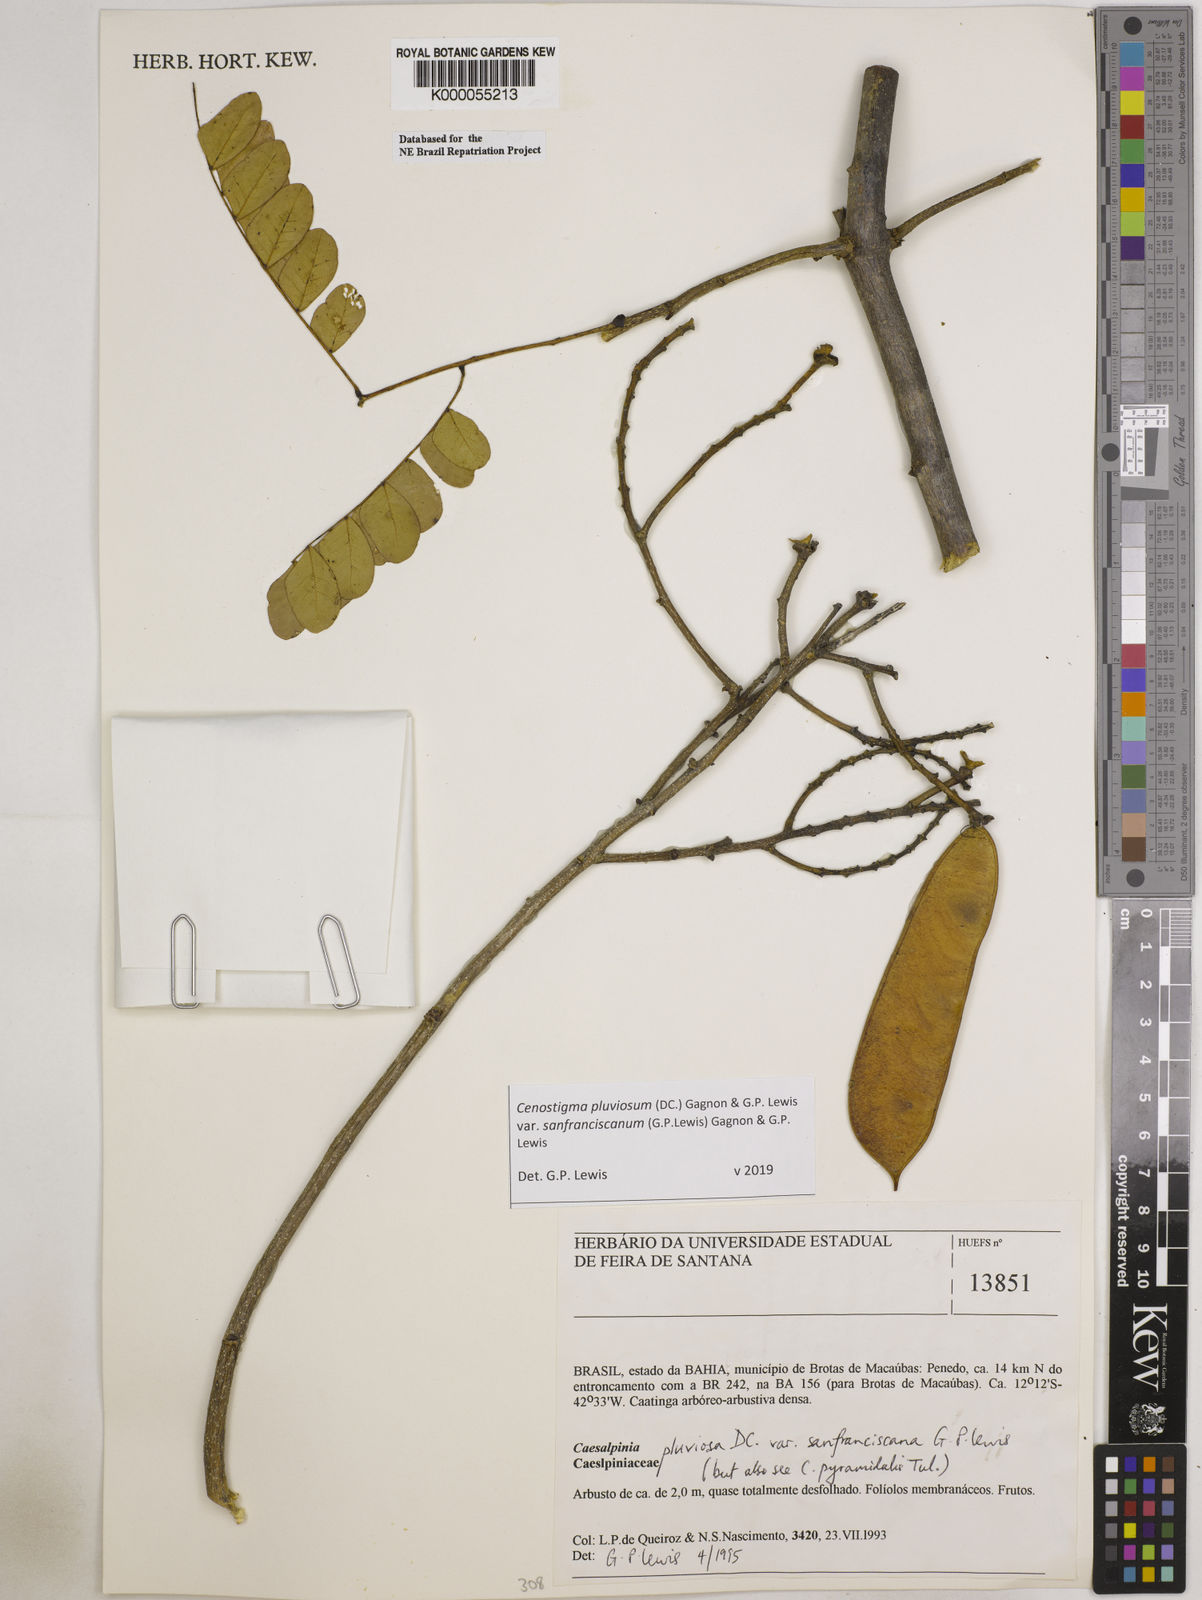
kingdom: Plantae
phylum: Tracheophyta
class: Magnoliopsida
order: Fabales
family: Fabaceae
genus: Cenostigma
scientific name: Cenostigma pluviosum
